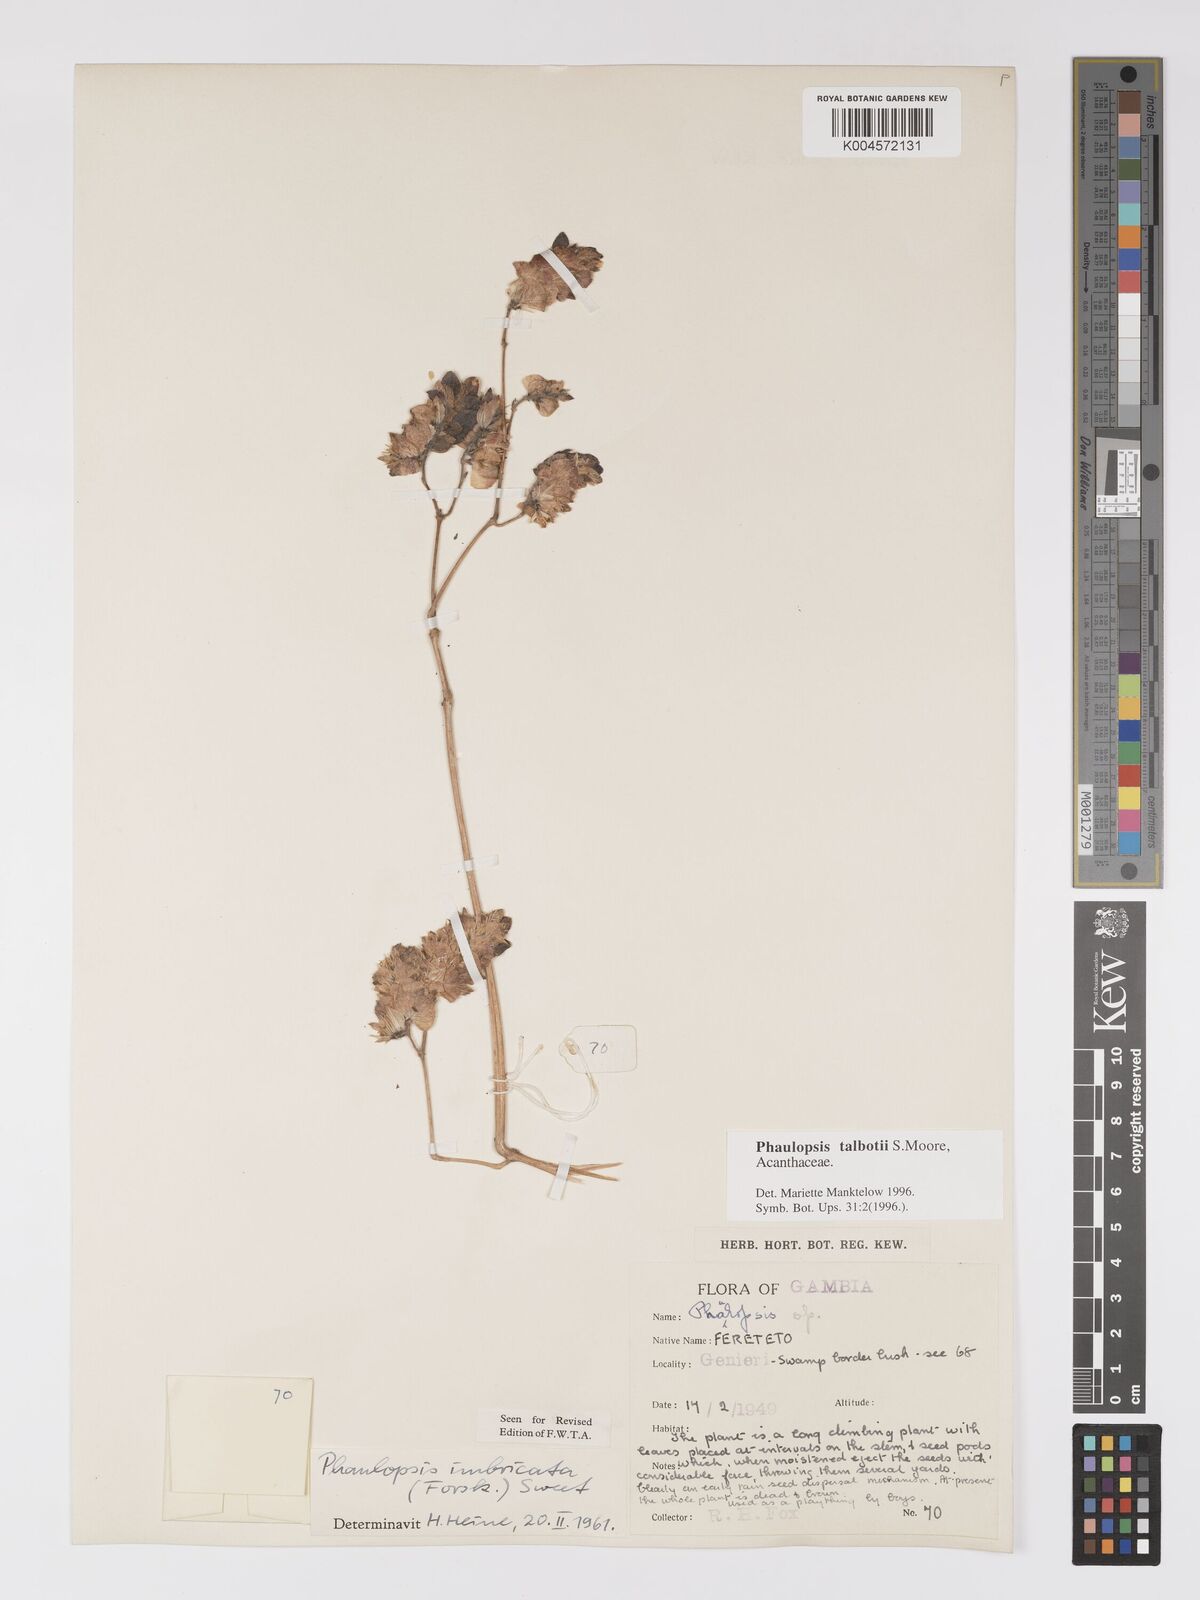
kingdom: Plantae
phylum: Tracheophyta
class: Magnoliopsida
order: Lamiales
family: Acanthaceae
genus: Phaulopsis
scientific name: Phaulopsis talbotii
